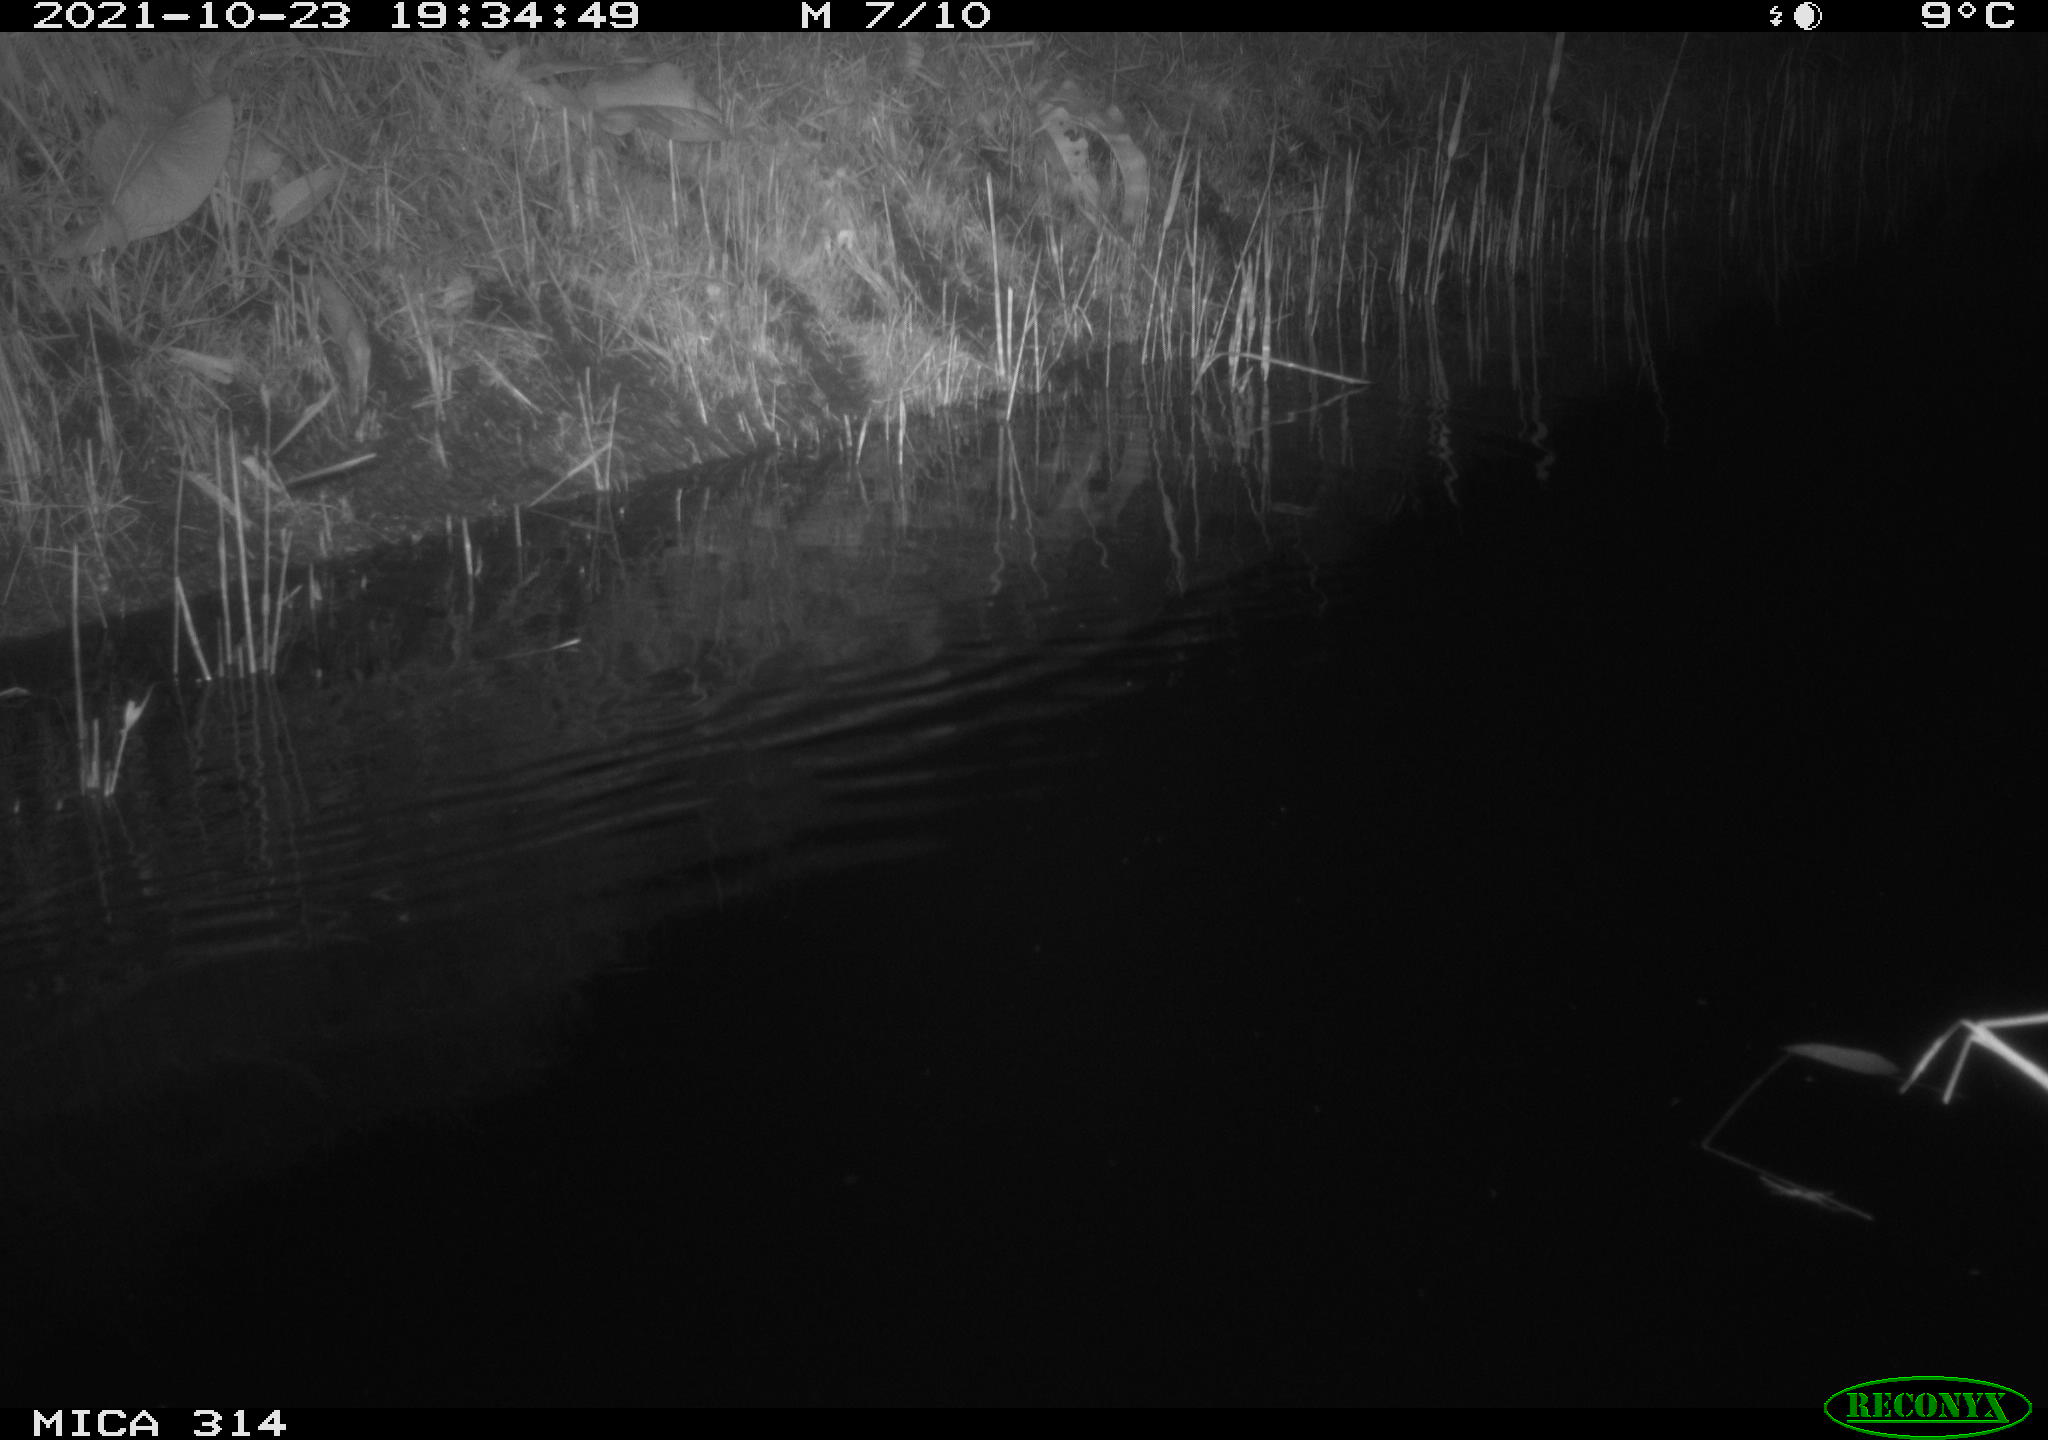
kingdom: Animalia
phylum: Chordata
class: Mammalia
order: Rodentia
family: Muridae
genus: Rattus
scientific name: Rattus norvegicus
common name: Brown rat
